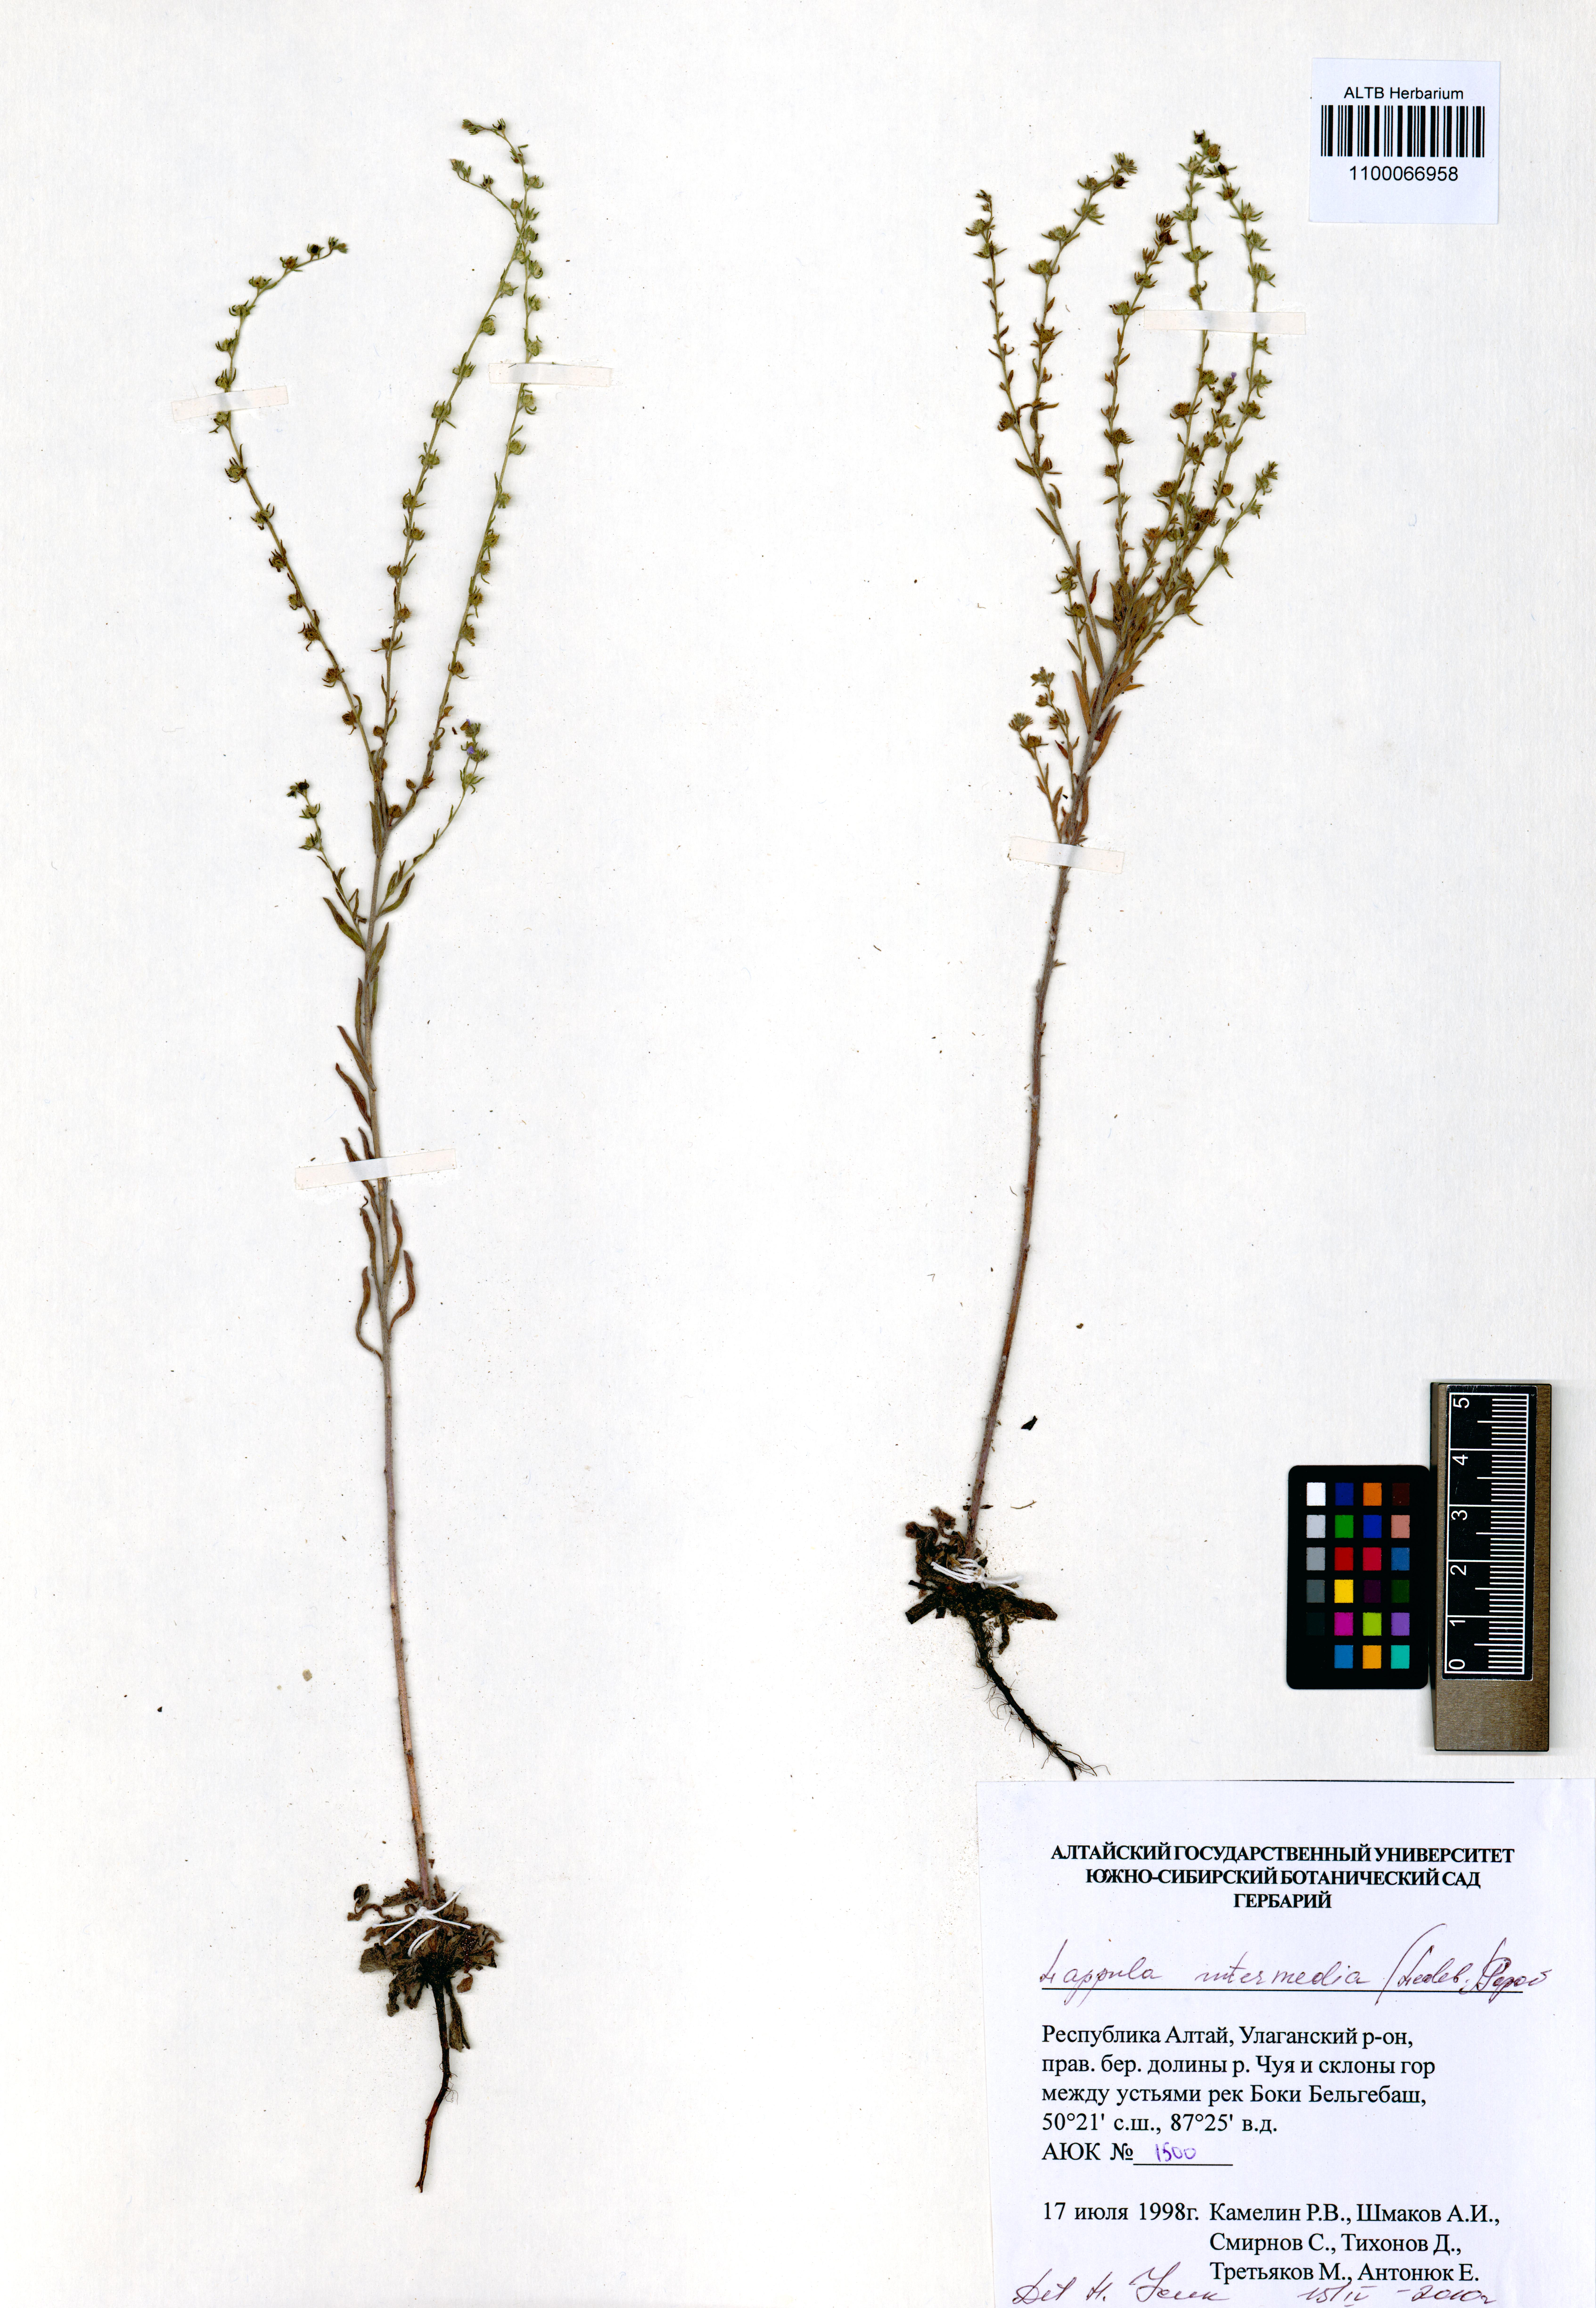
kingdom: Plantae
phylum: Tracheophyta
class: Magnoliopsida
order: Boraginales
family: Boraginaceae
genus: Lappula
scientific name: Lappula intermedia
